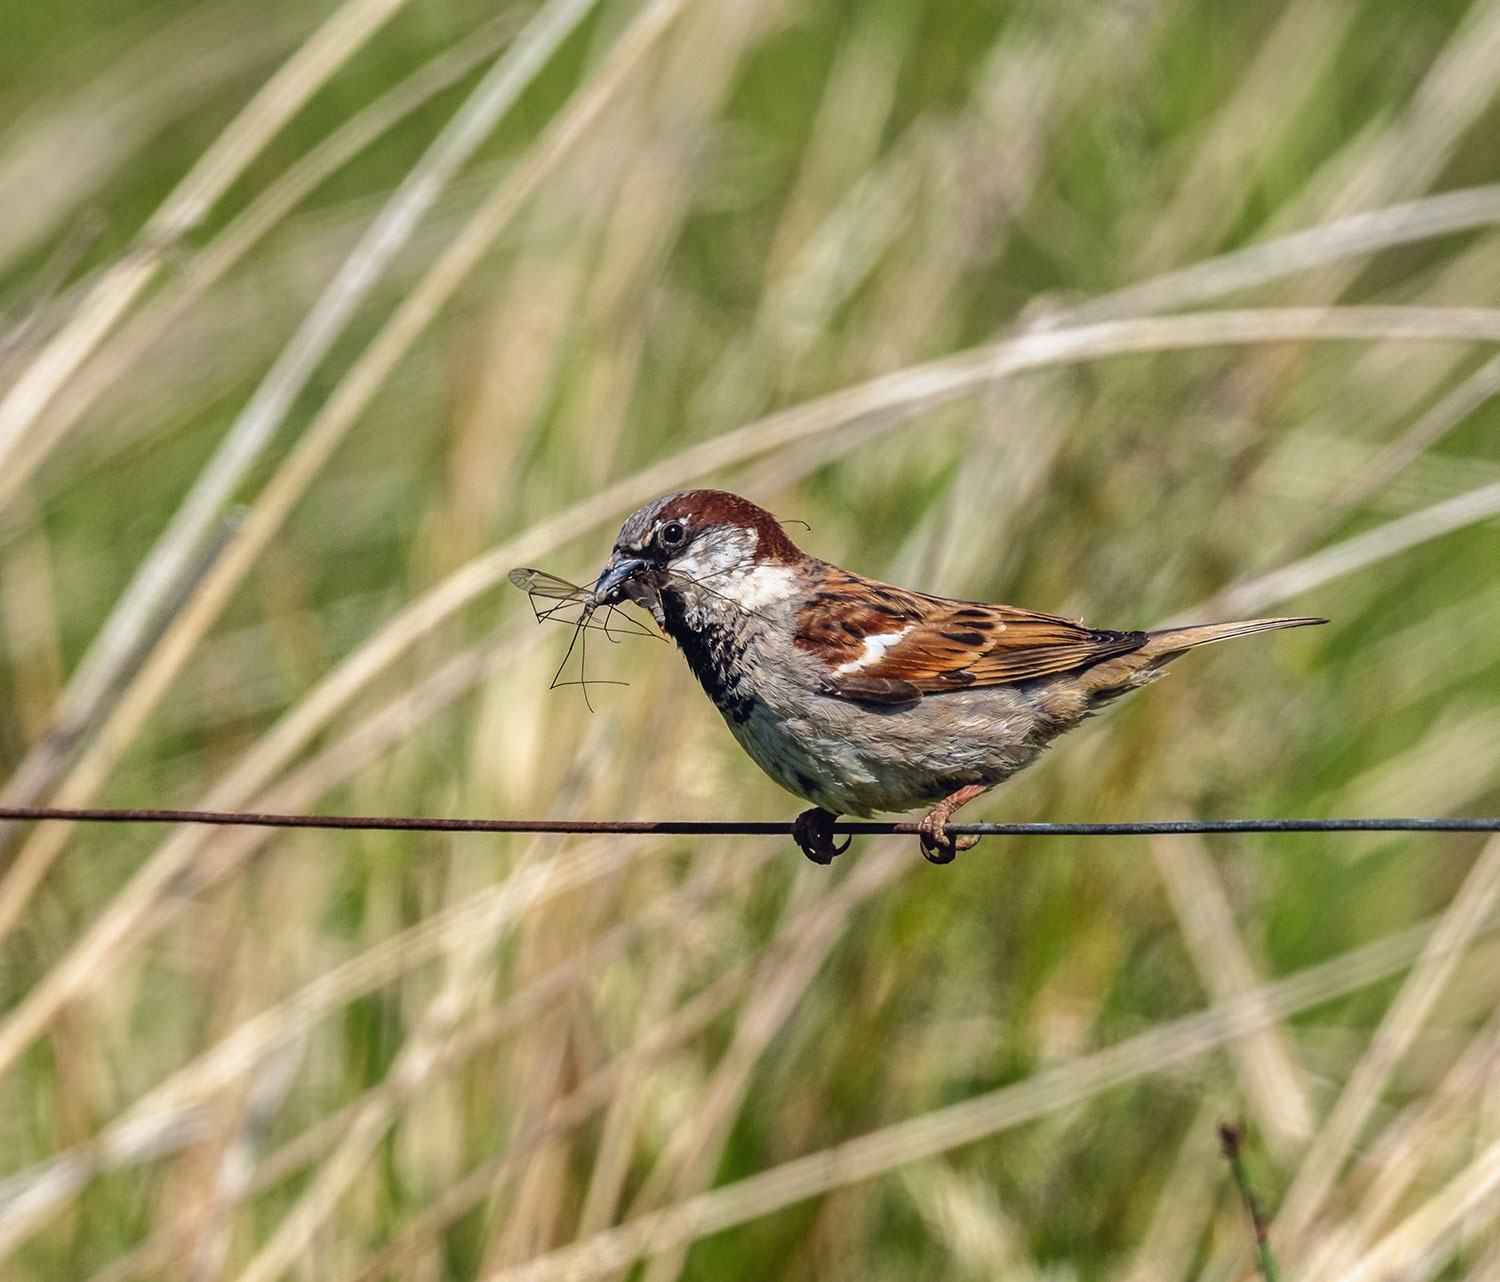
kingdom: Animalia
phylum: Chordata
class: Aves
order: Passeriformes
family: Passeridae
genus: Passer
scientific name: Passer domesticus
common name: Gråspurv
